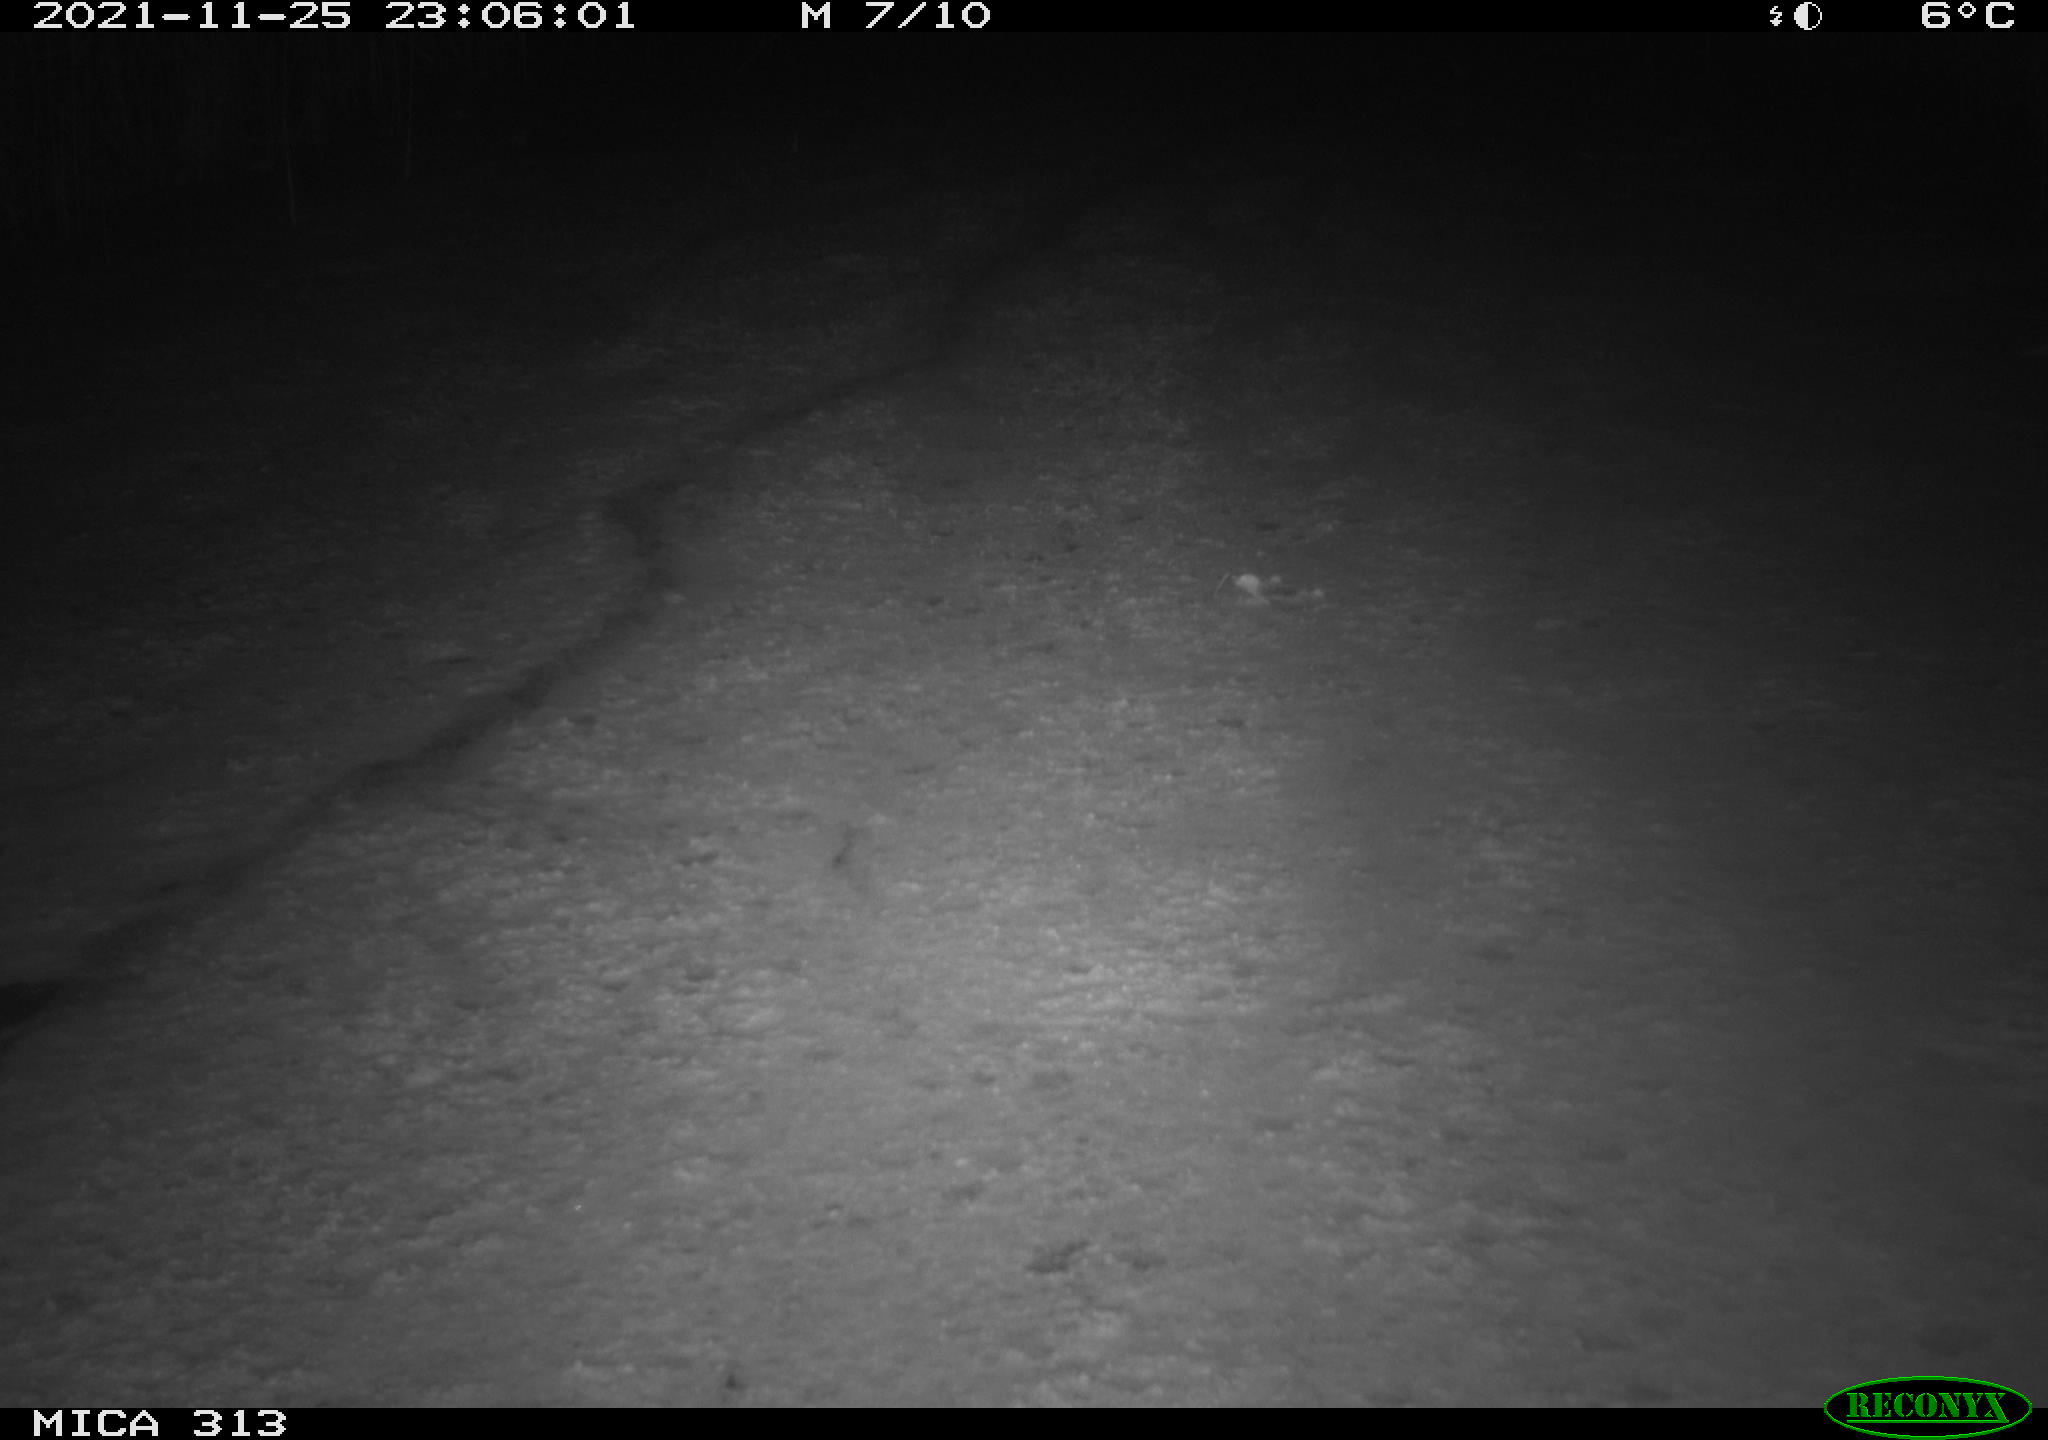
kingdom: Animalia
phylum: Chordata
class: Aves
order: Gruiformes
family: Rallidae
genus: Fulica
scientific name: Fulica atra
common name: Eurasian coot
